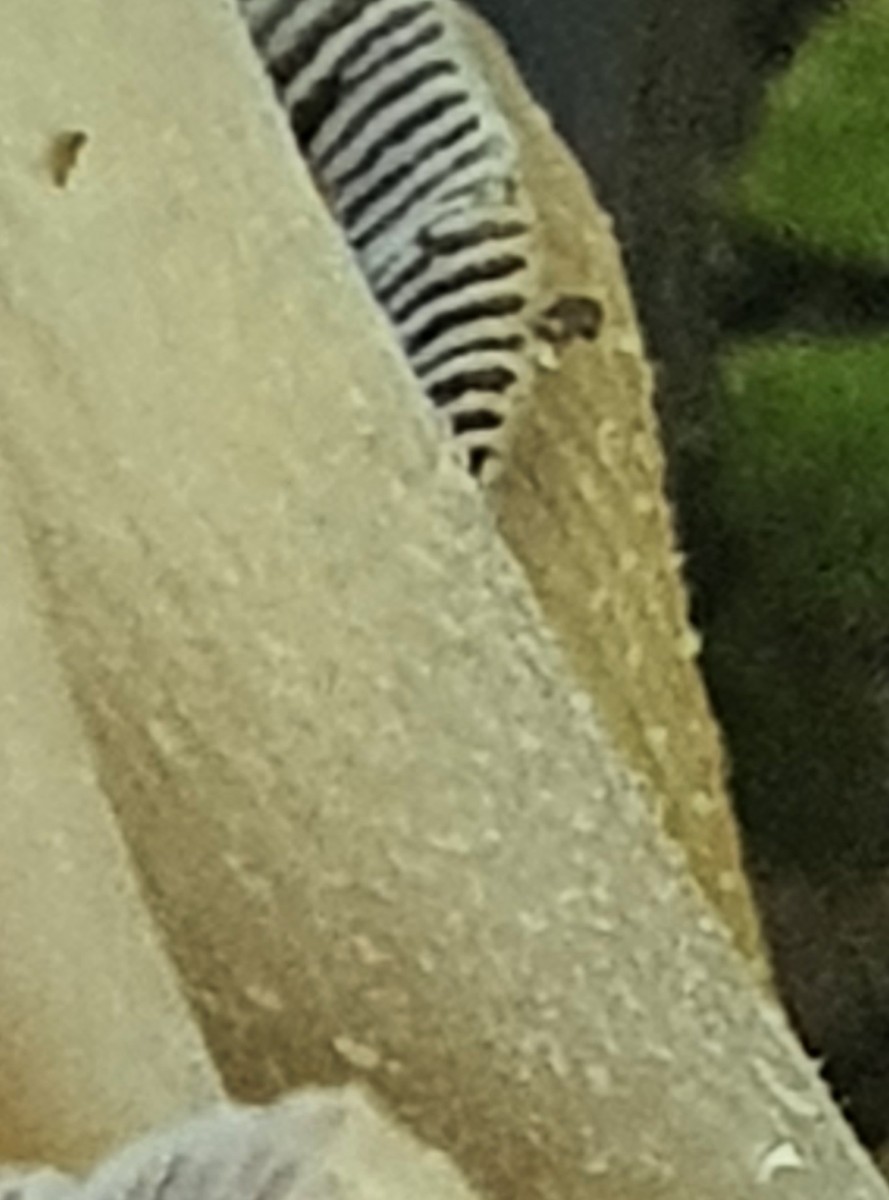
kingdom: Fungi
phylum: Basidiomycota
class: Agaricomycetes
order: Agaricales
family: Psathyrellaceae
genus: Coprinellus
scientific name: Coprinellus micaceus
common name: glimmer-blækhat
